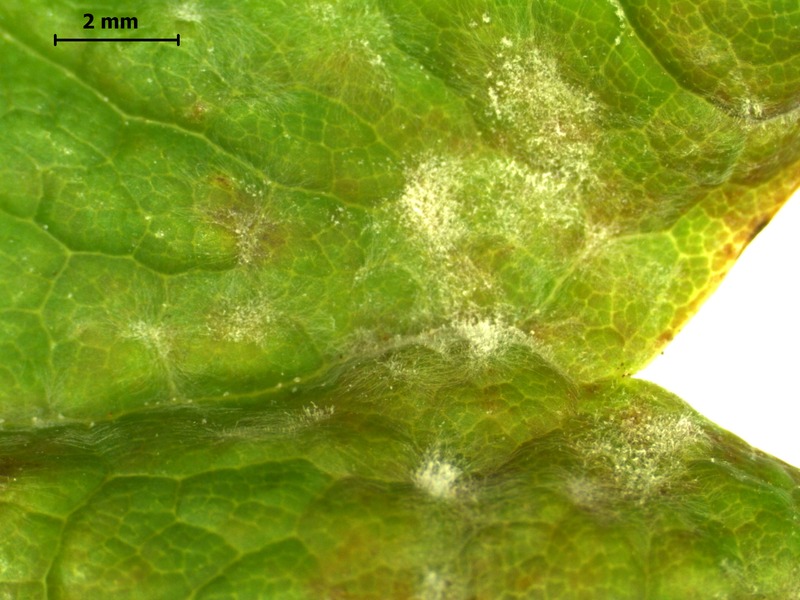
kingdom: Fungi
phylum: Ascomycota
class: Leotiomycetes
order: Helotiales
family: Erysiphaceae
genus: Sawadaea
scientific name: Sawadaea bicornis
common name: Maple mildew
